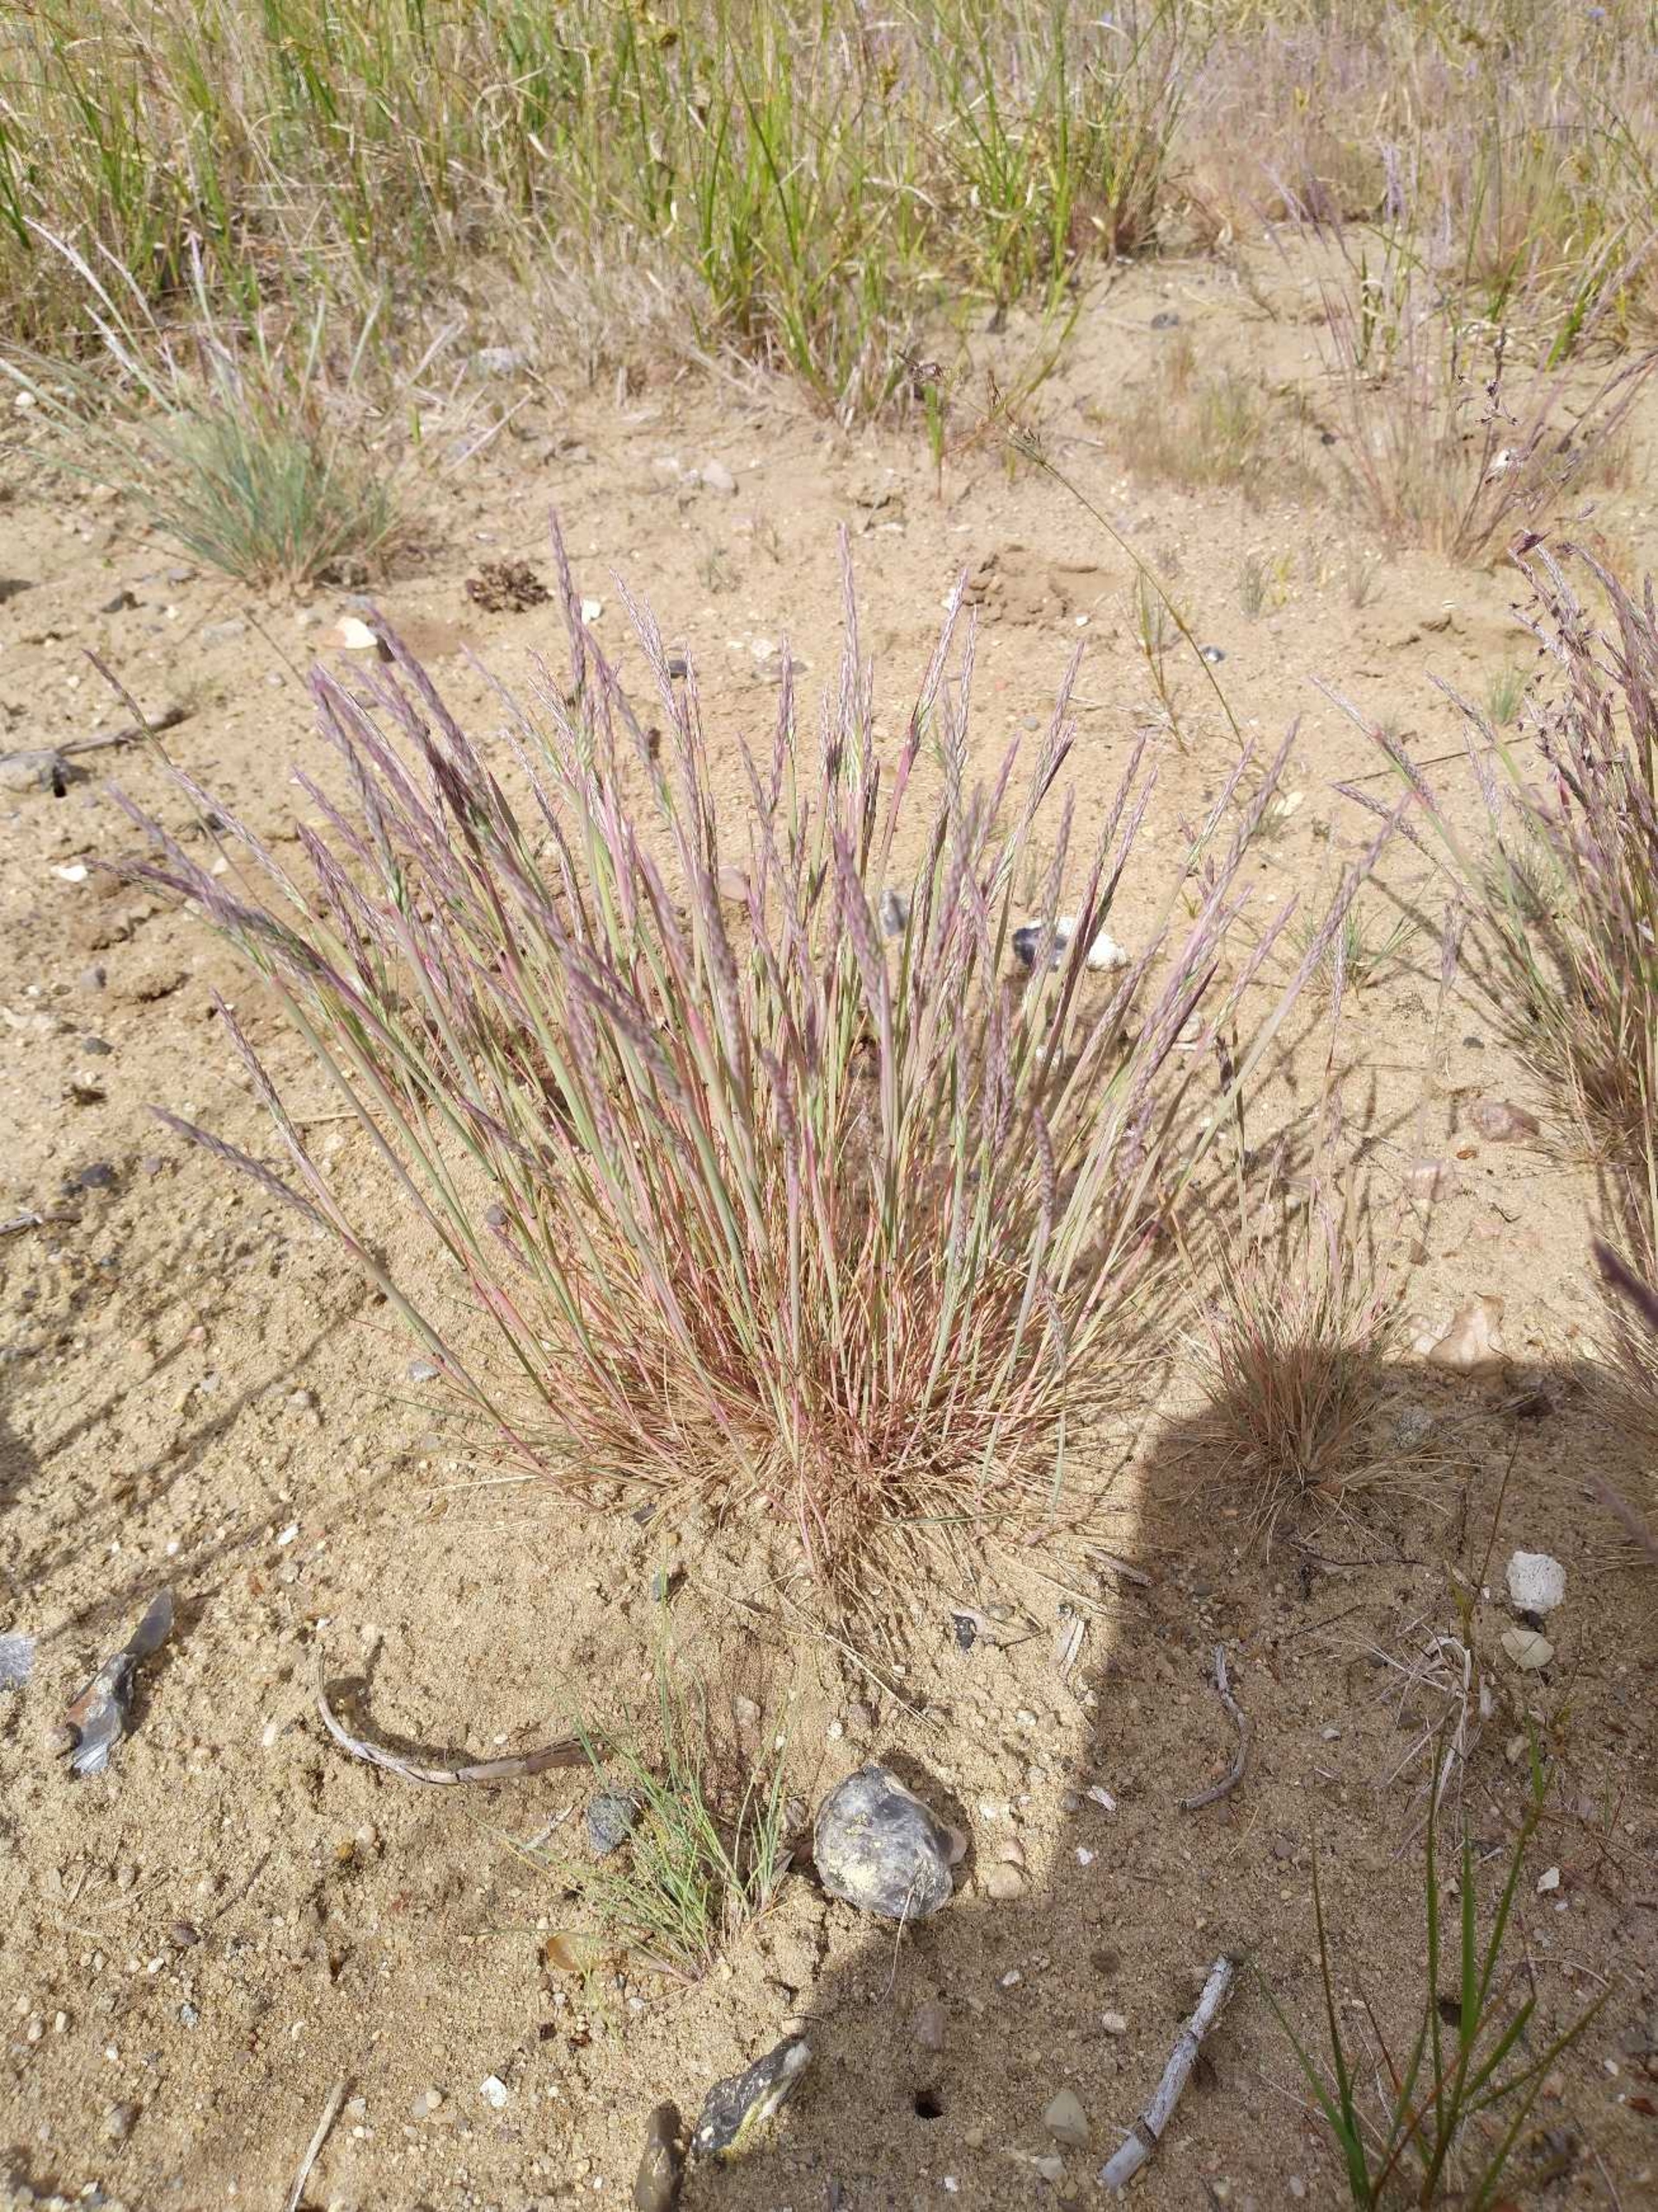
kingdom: Plantae
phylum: Tracheophyta
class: Liliopsida
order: Poales
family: Poaceae
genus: Corynephorus
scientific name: Corynephorus canescens
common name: Sandskæg
